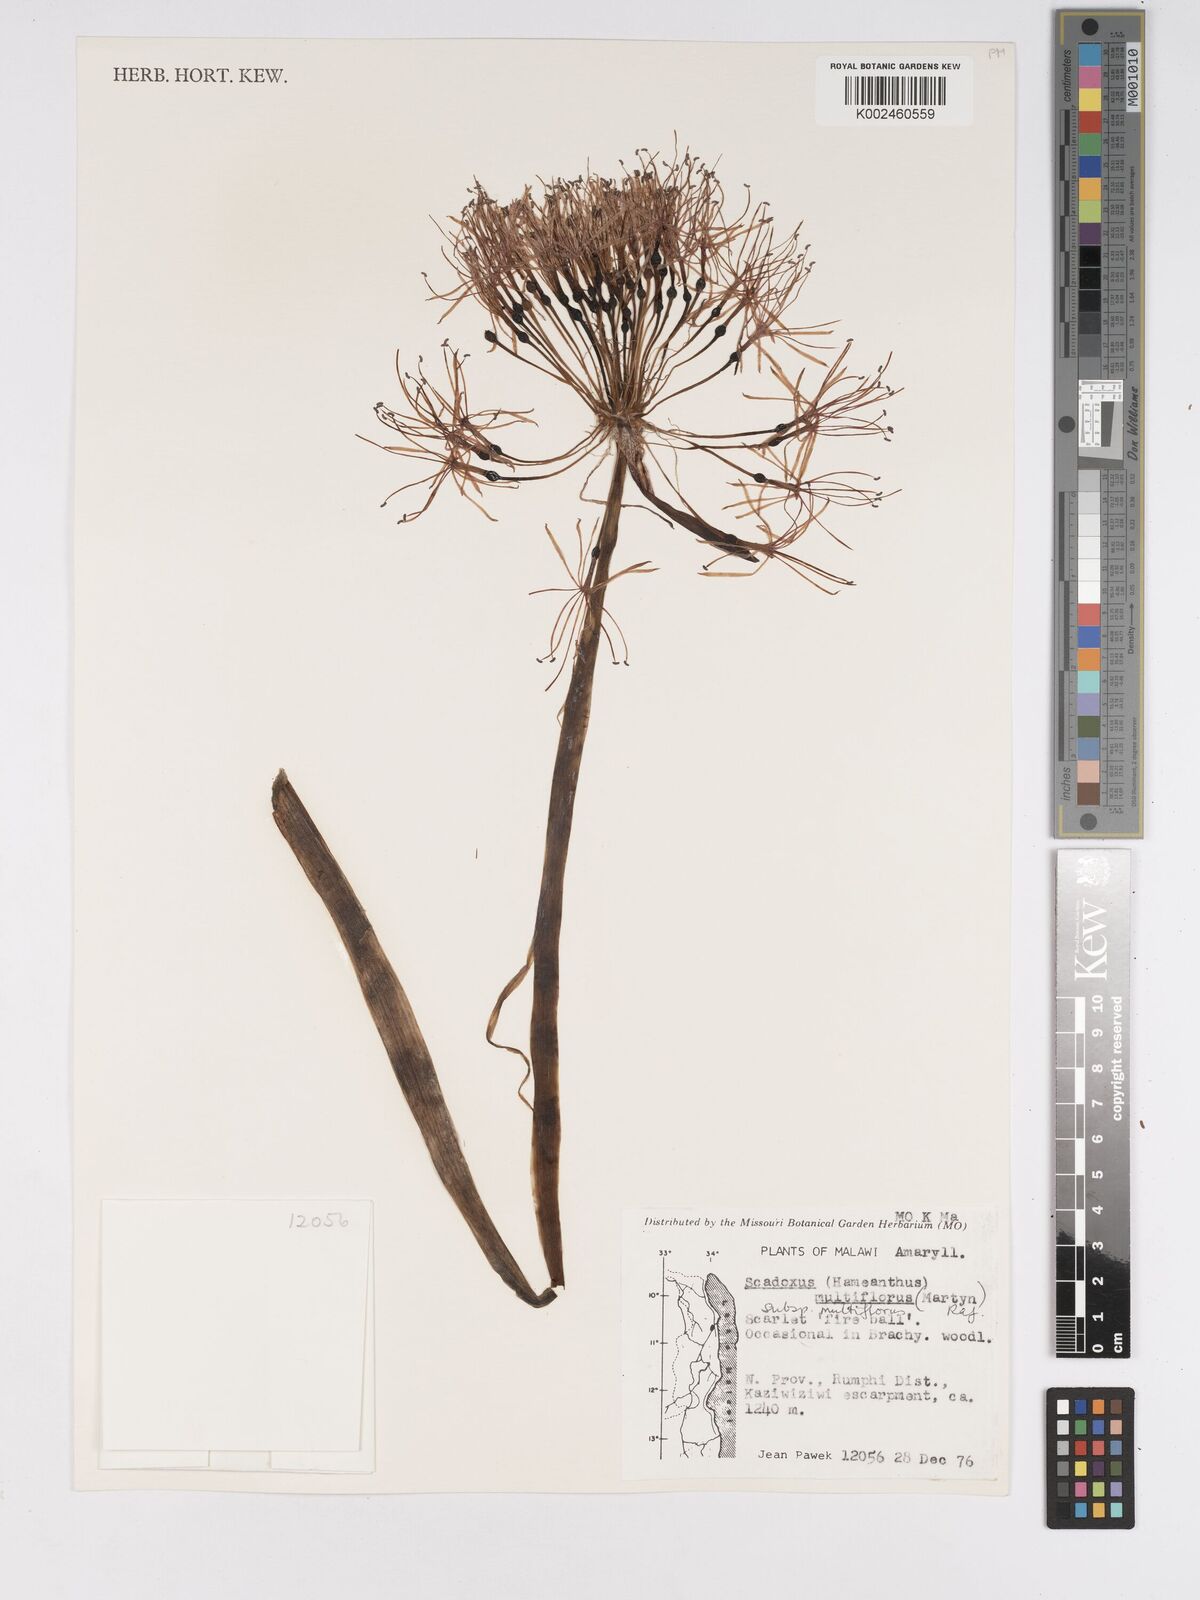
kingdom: Plantae
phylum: Tracheophyta
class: Liliopsida
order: Asparagales
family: Amaryllidaceae
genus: Scadoxus
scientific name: Scadoxus multiflorus
